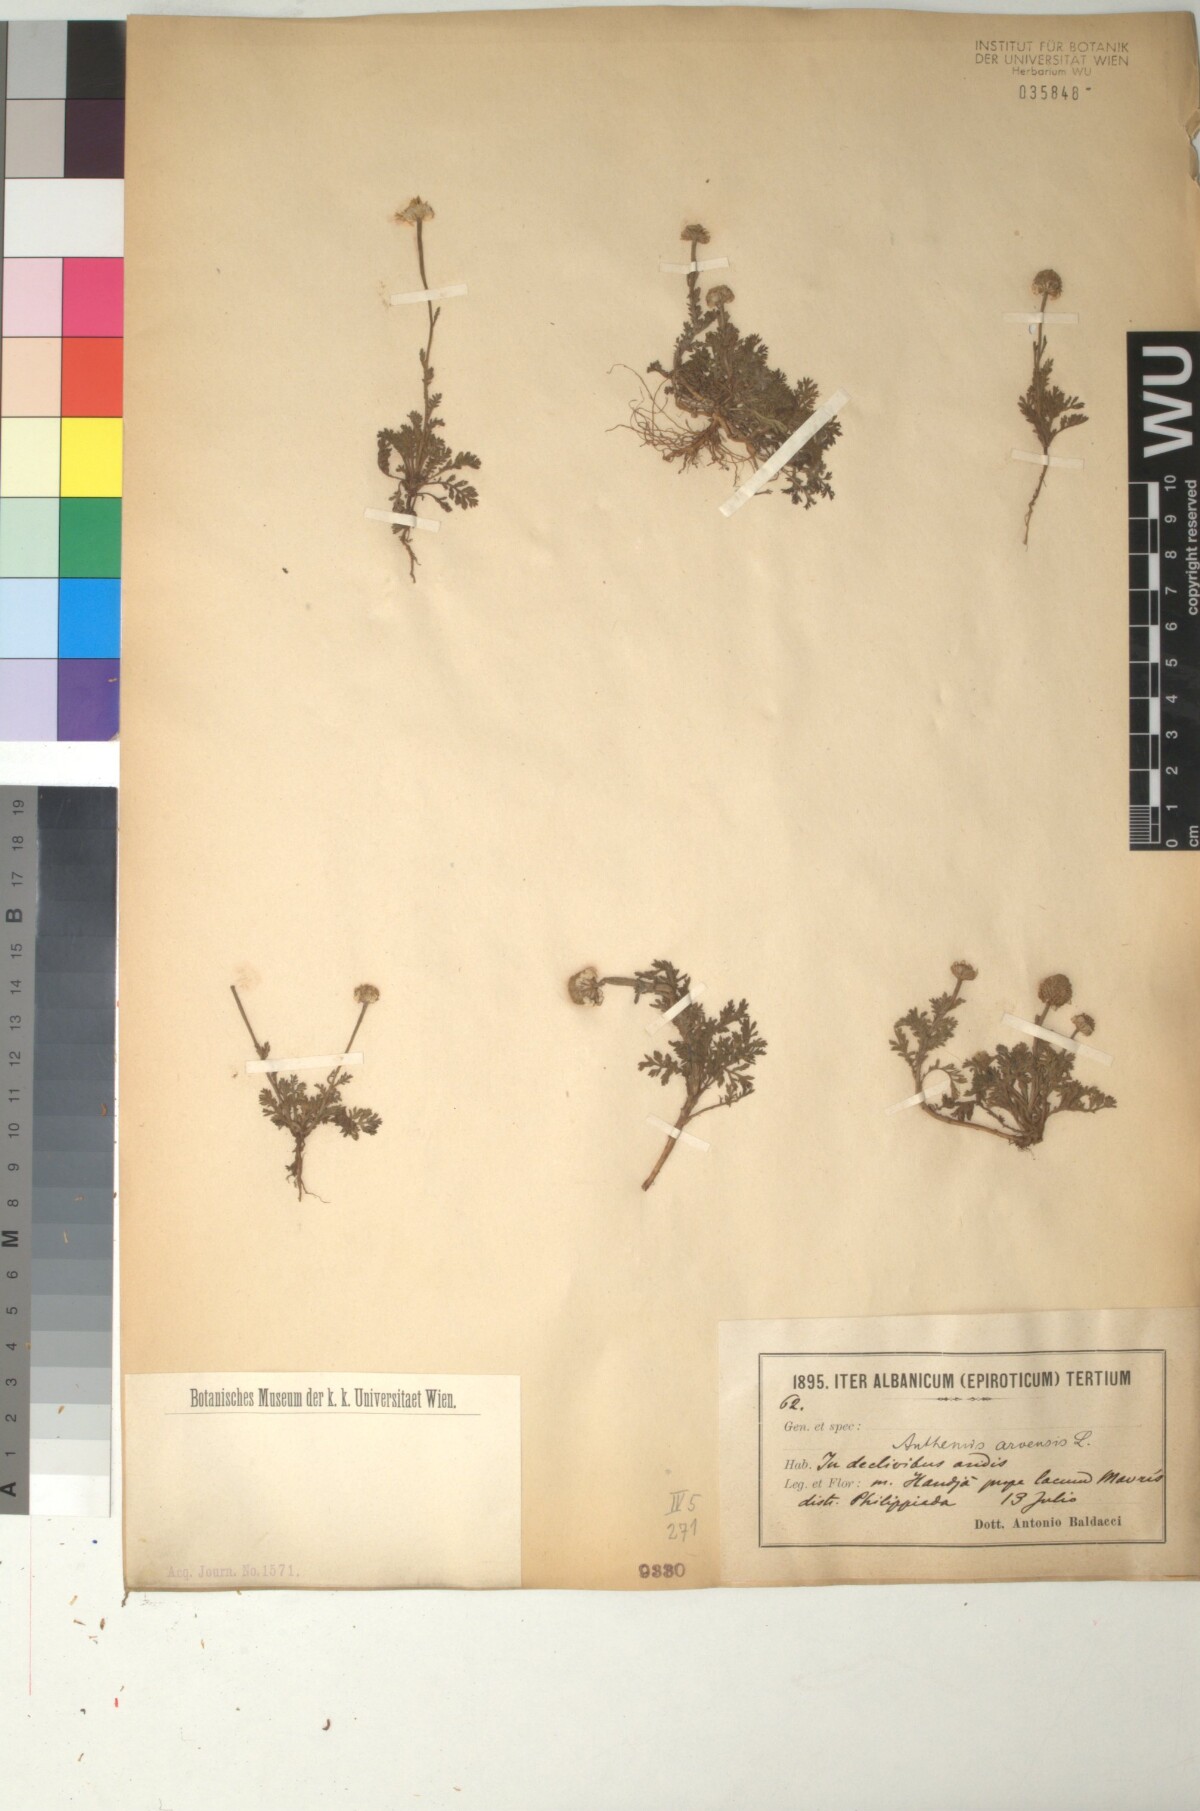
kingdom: Plantae
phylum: Tracheophyta
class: Magnoliopsida
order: Asterales
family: Asteraceae
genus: Anthemis
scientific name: Anthemis arvensis
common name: Corn chamomile
